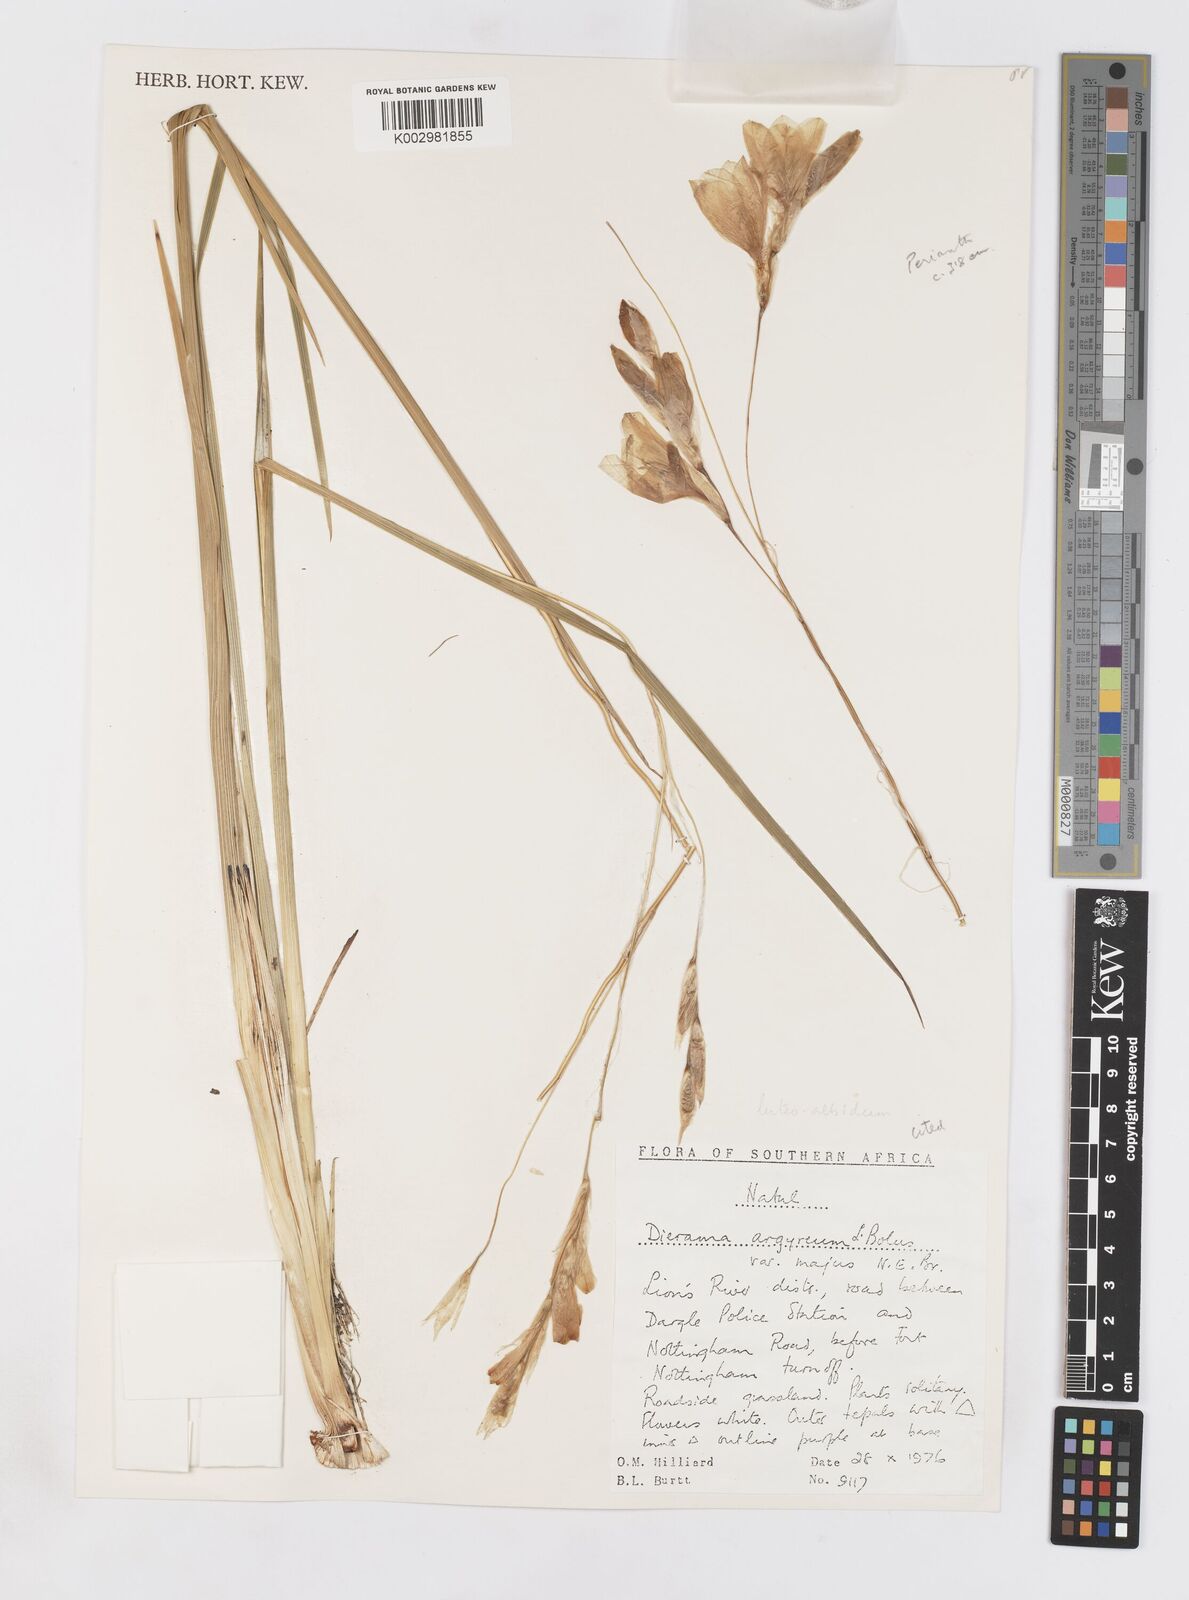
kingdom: Plantae
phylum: Tracheophyta
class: Liliopsida
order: Asparagales
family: Iridaceae
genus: Dierama
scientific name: Dierama luteoalbidum
